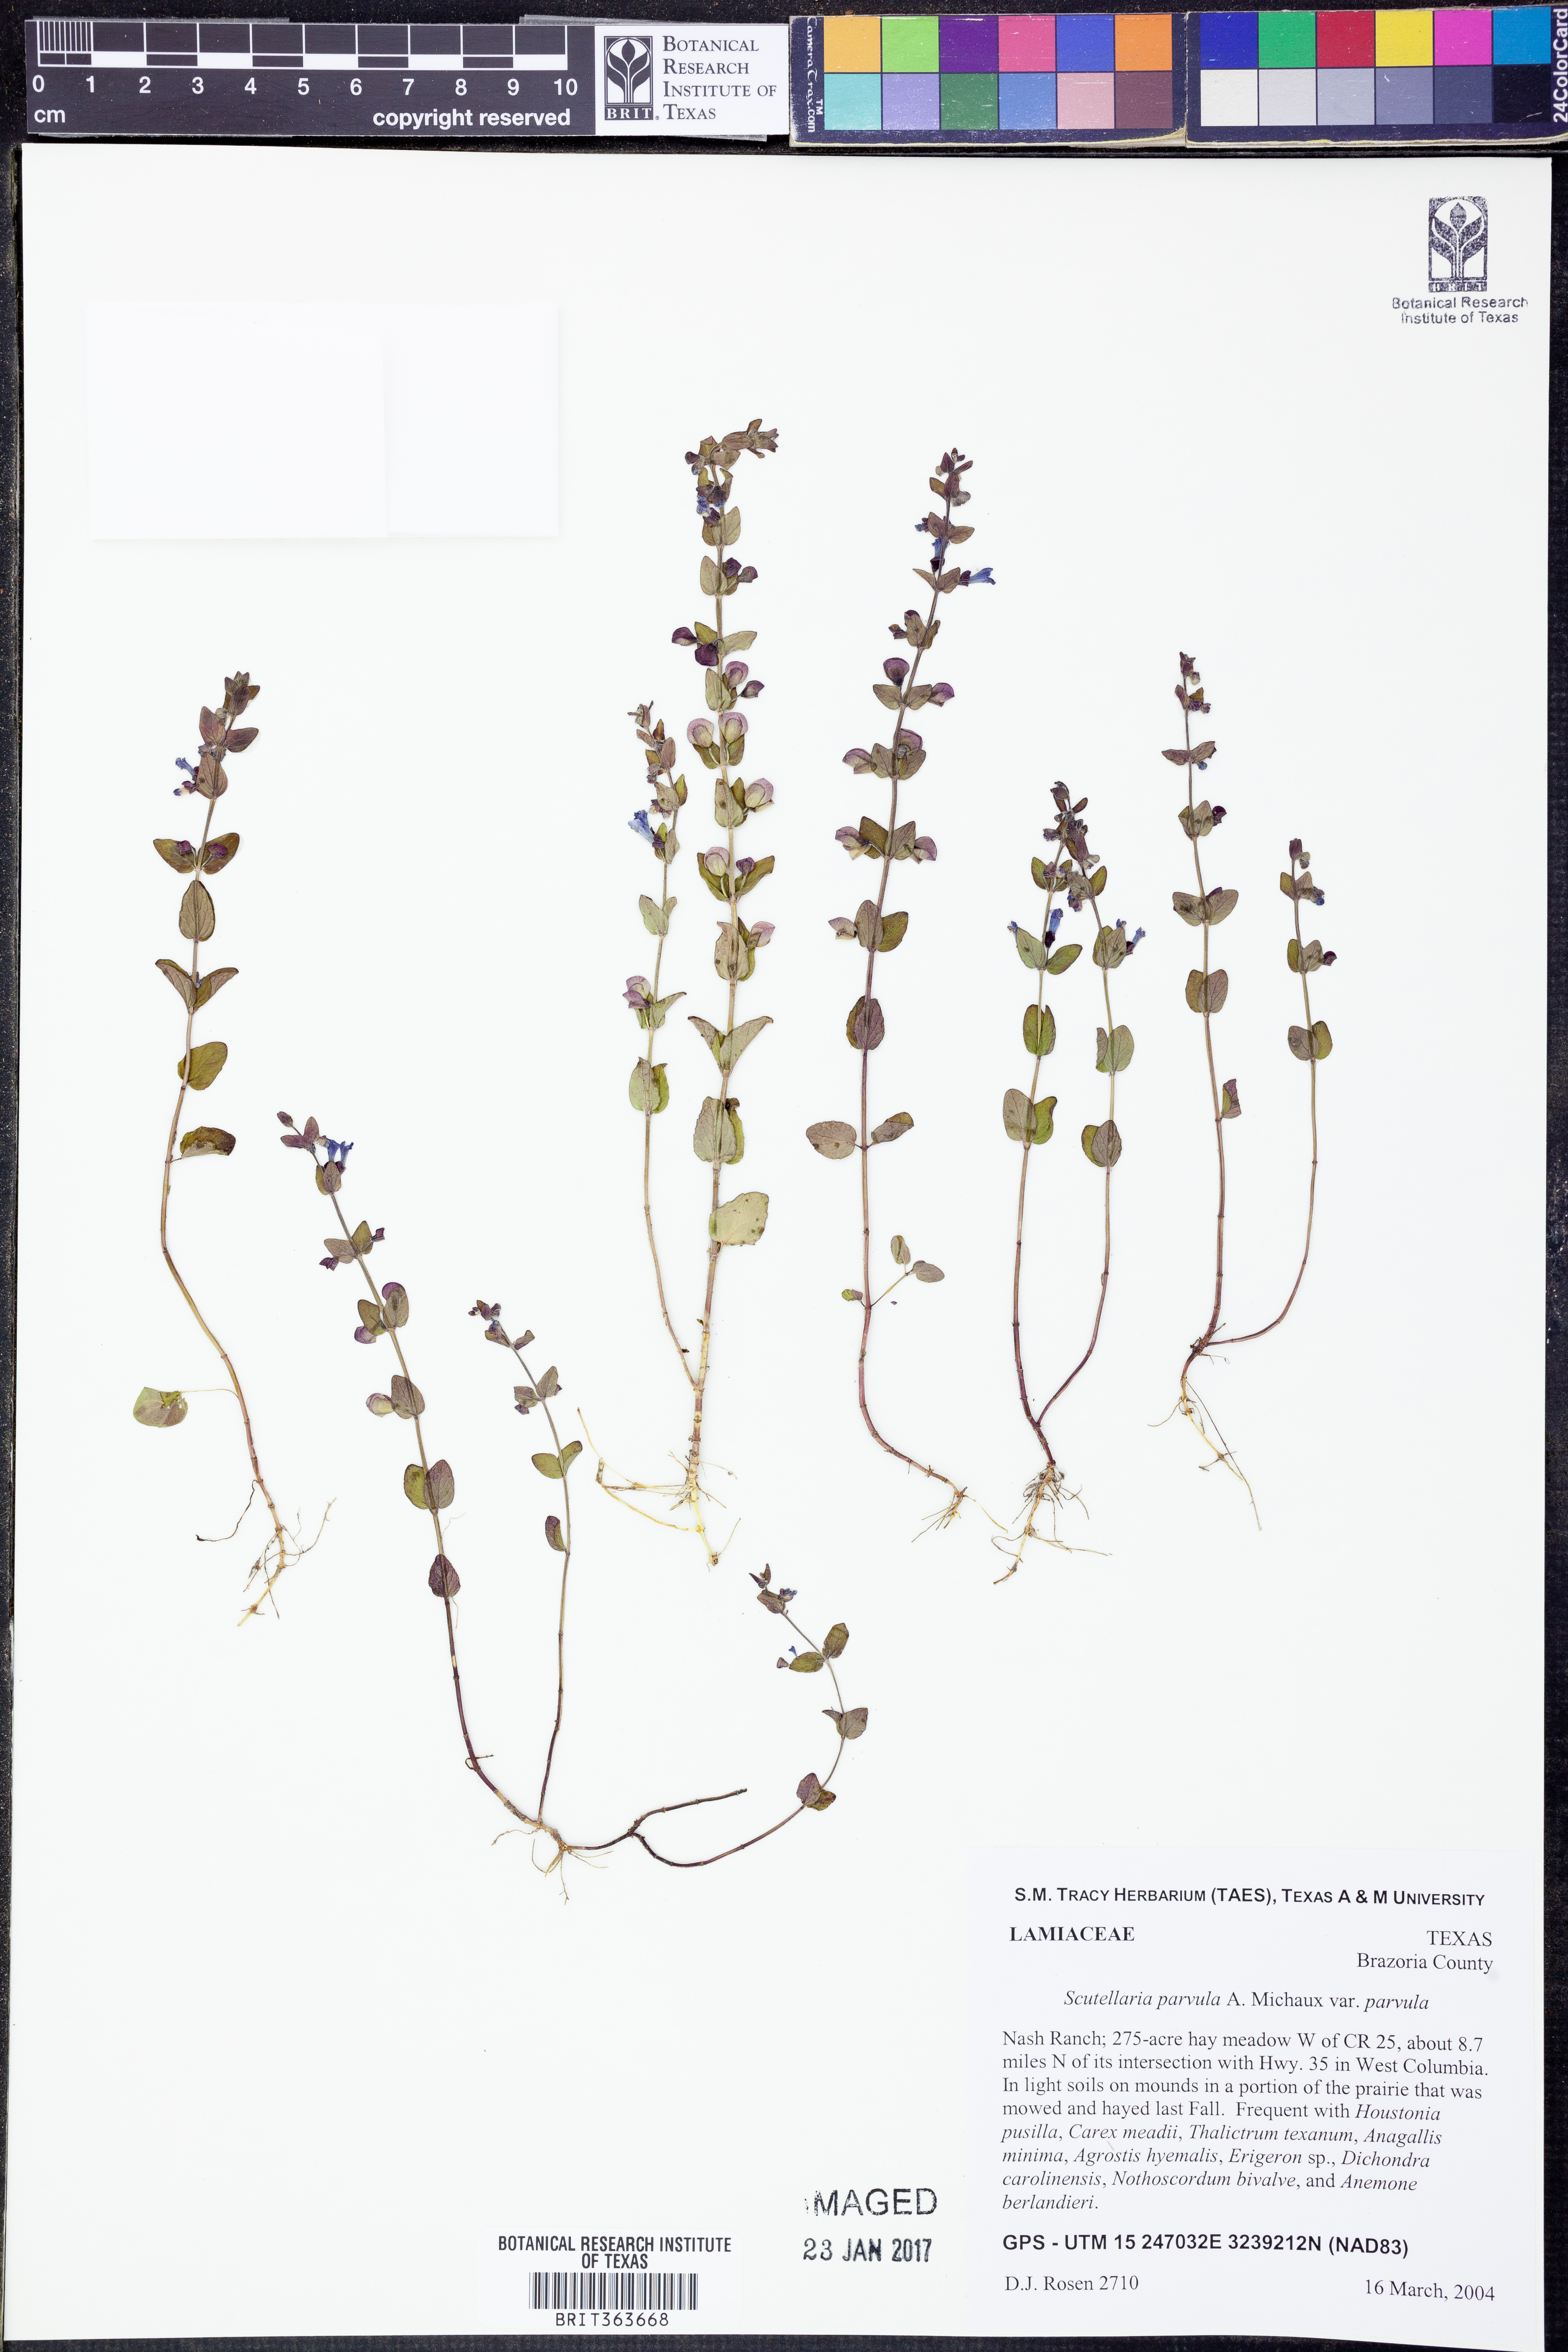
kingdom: Plantae
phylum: Tracheophyta
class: Magnoliopsida
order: Lamiales
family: Lamiaceae
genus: Scutellaria
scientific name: Scutellaria parvula
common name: Little scullcap
